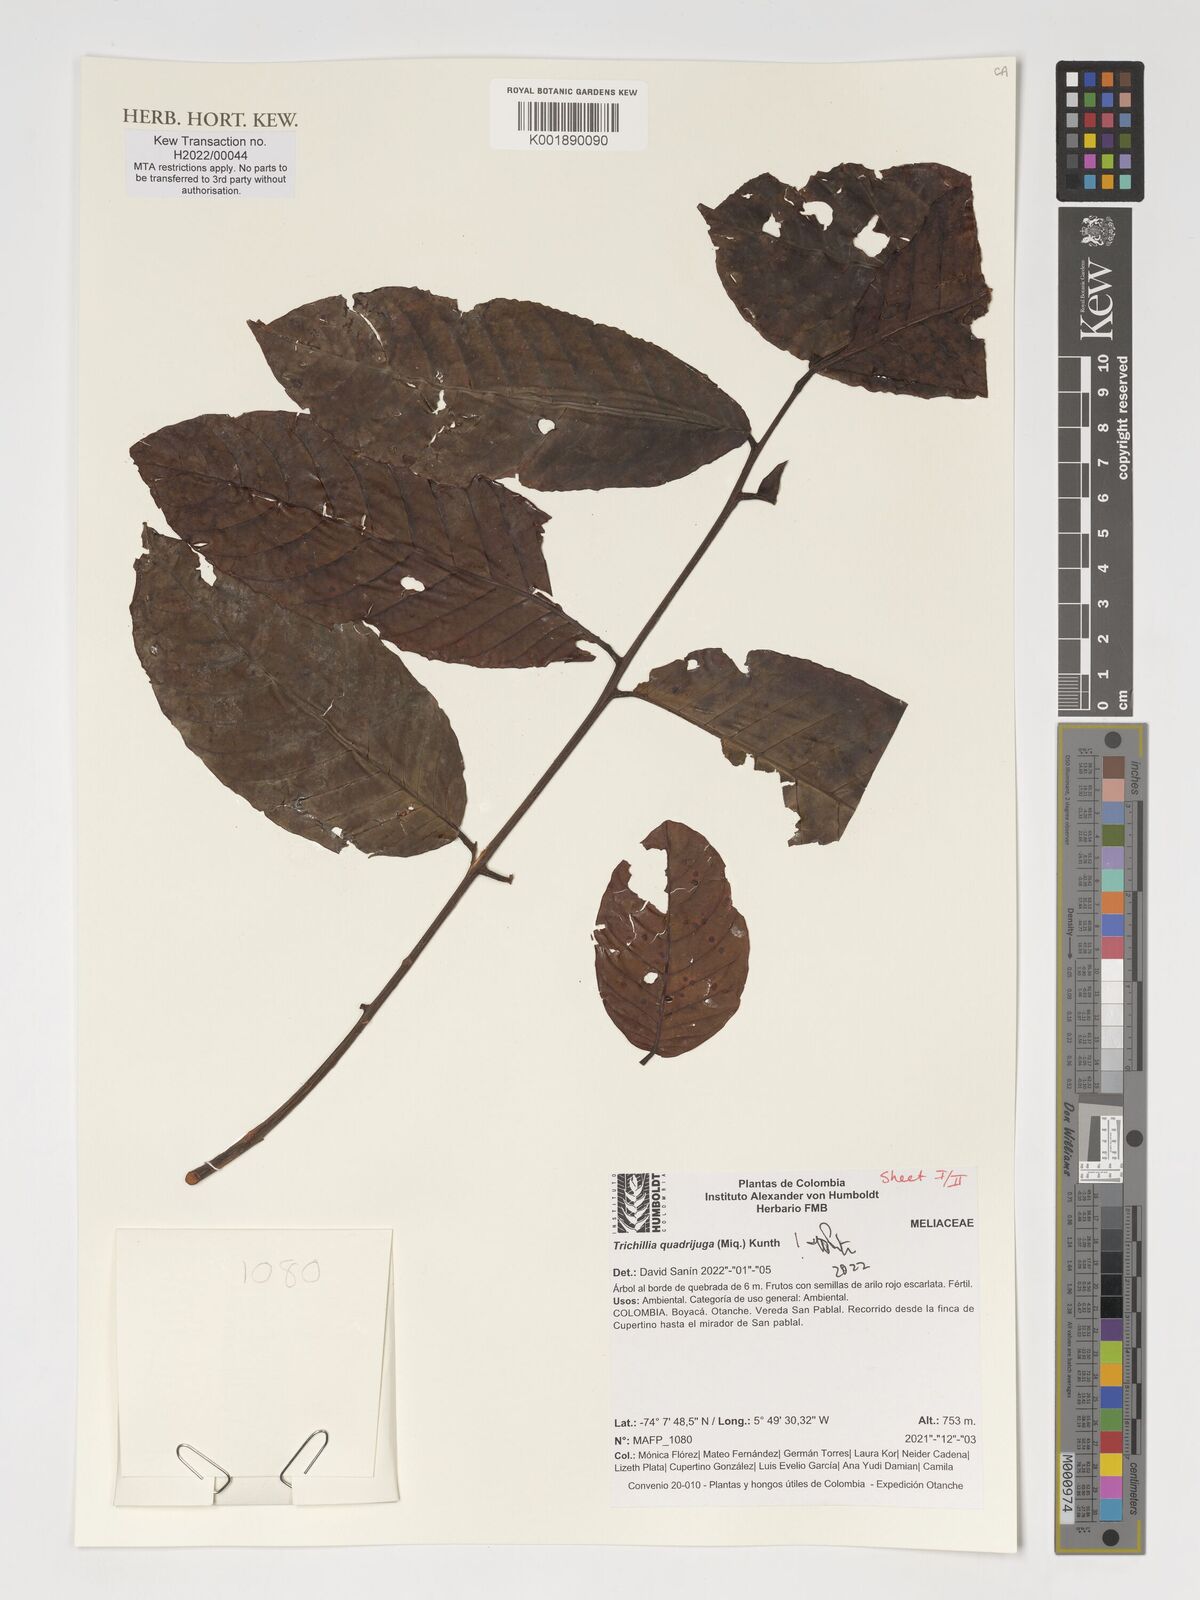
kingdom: Plantae
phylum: Tracheophyta
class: Magnoliopsida
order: Sapindales
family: Meliaceae
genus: Trichilia
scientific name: Trichilia quadrijuga
